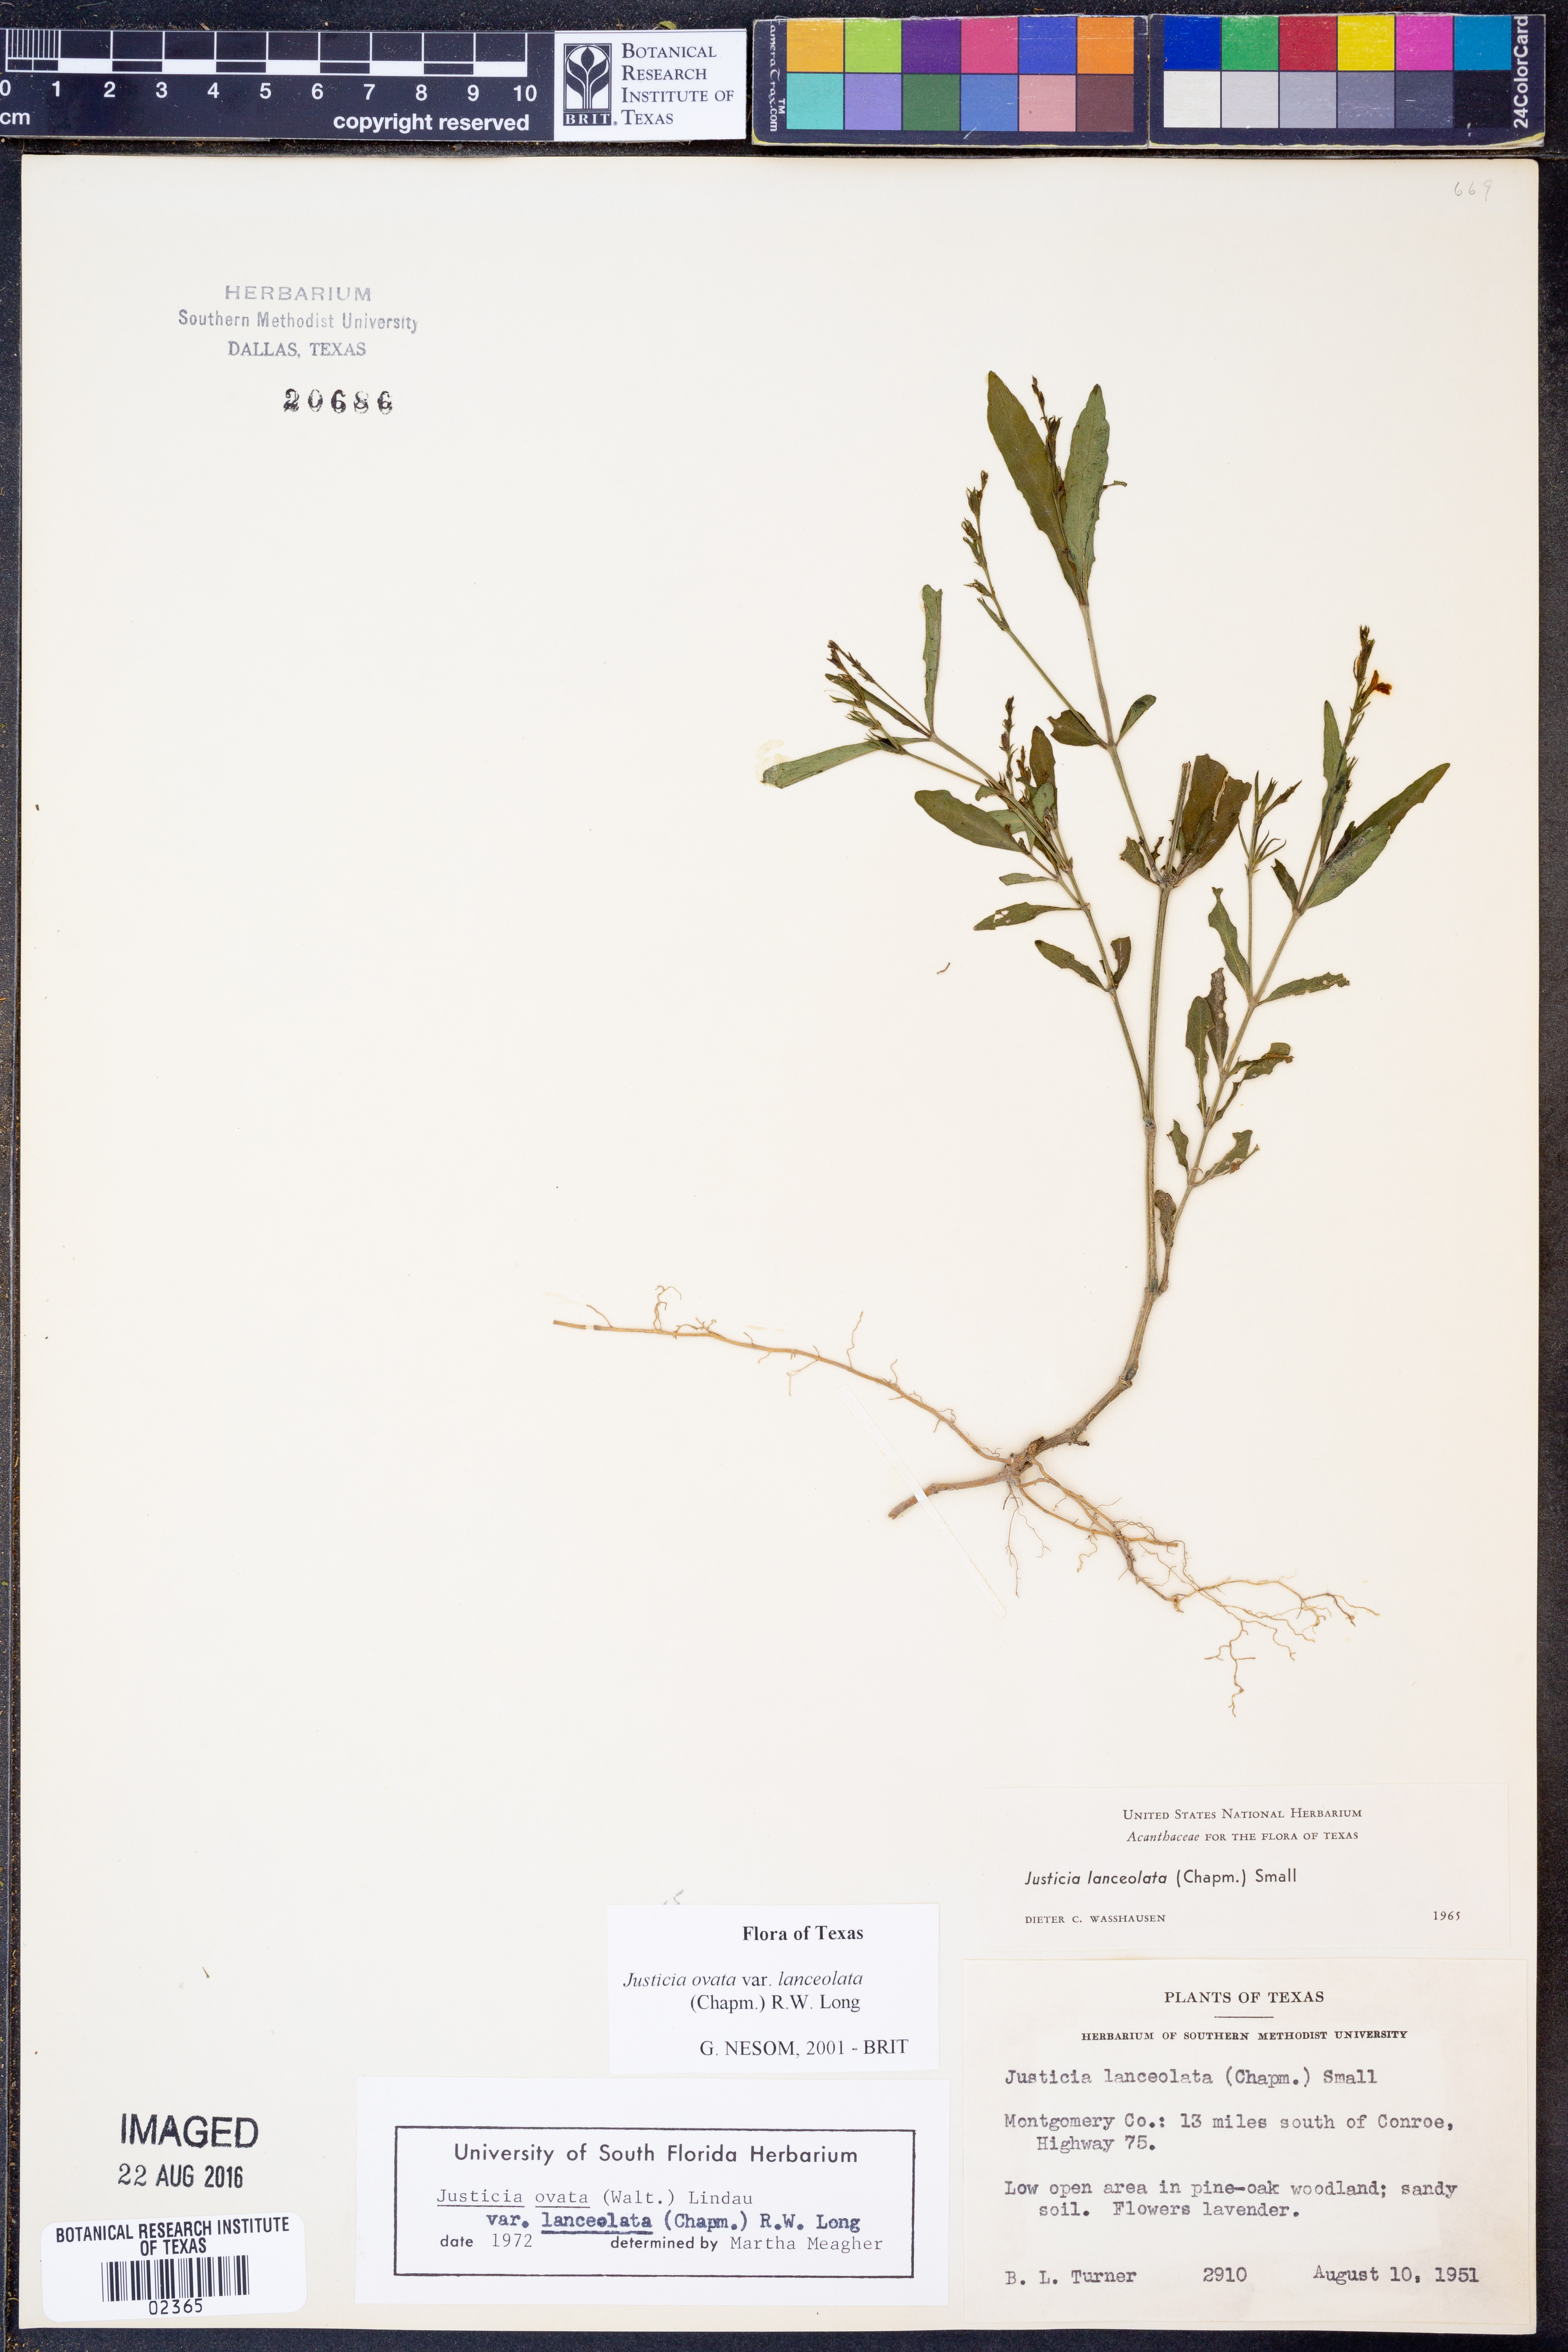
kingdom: Plantae
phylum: Tracheophyta
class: Magnoliopsida
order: Lamiales
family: Acanthaceae
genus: Justicia
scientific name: Justicia lanceolata
